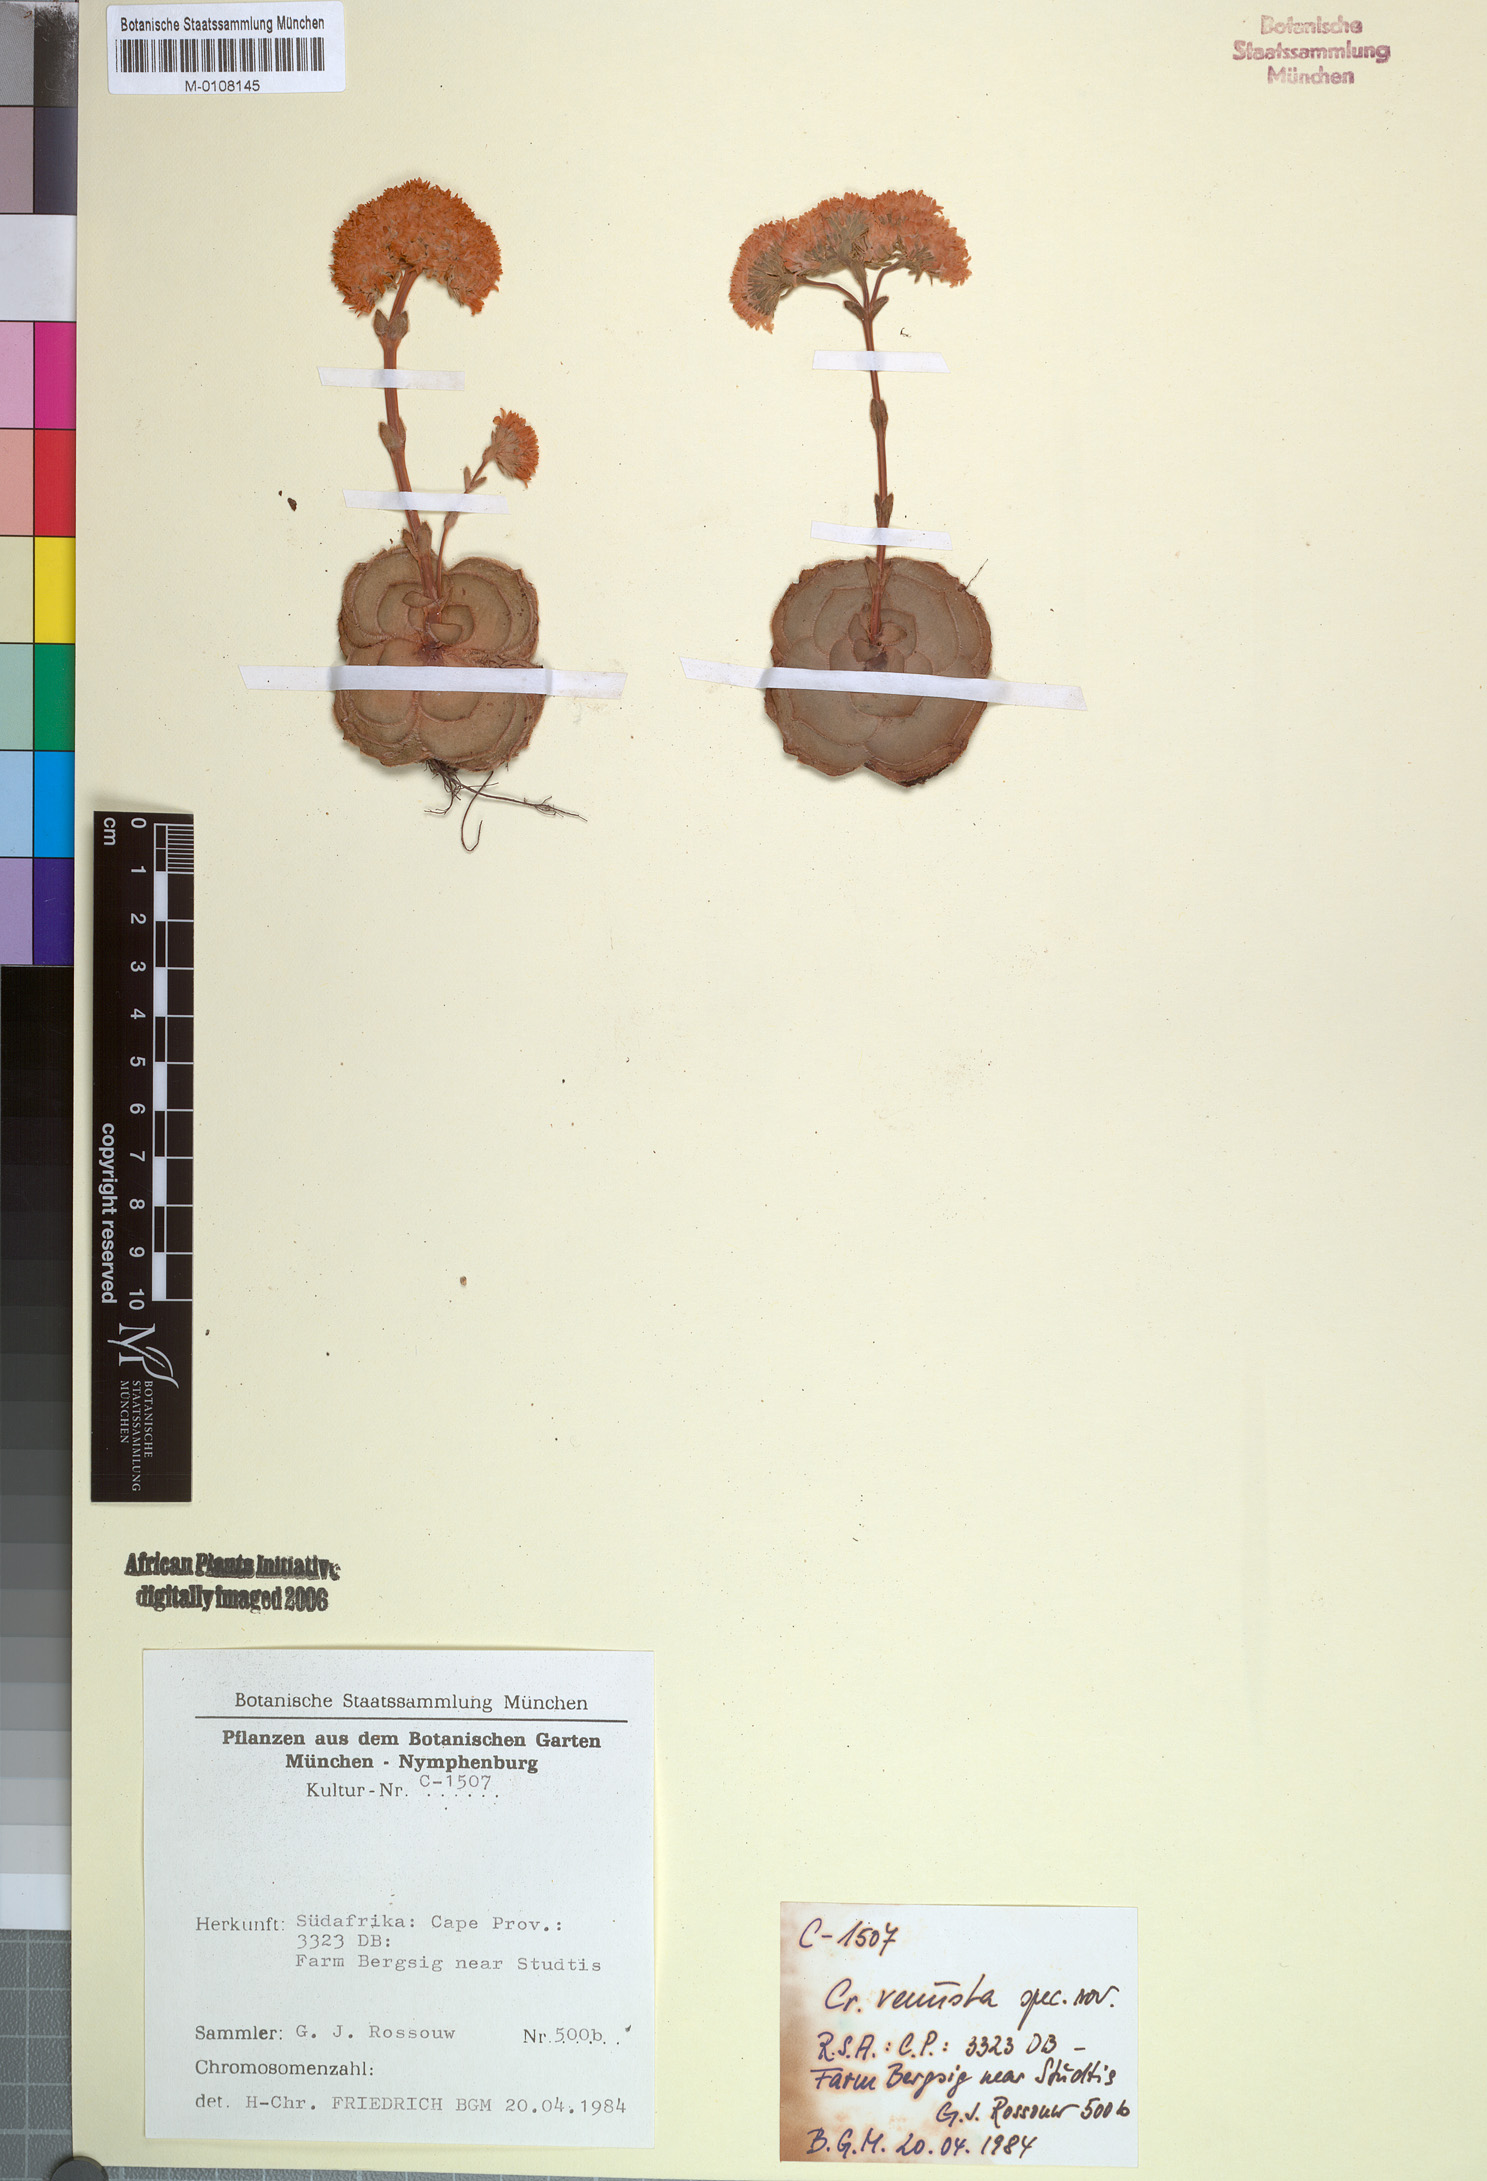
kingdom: Plantae
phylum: Tracheophyta
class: Magnoliopsida
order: Saxifragales
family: Crassulaceae
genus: Crassula
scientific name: Crassula
